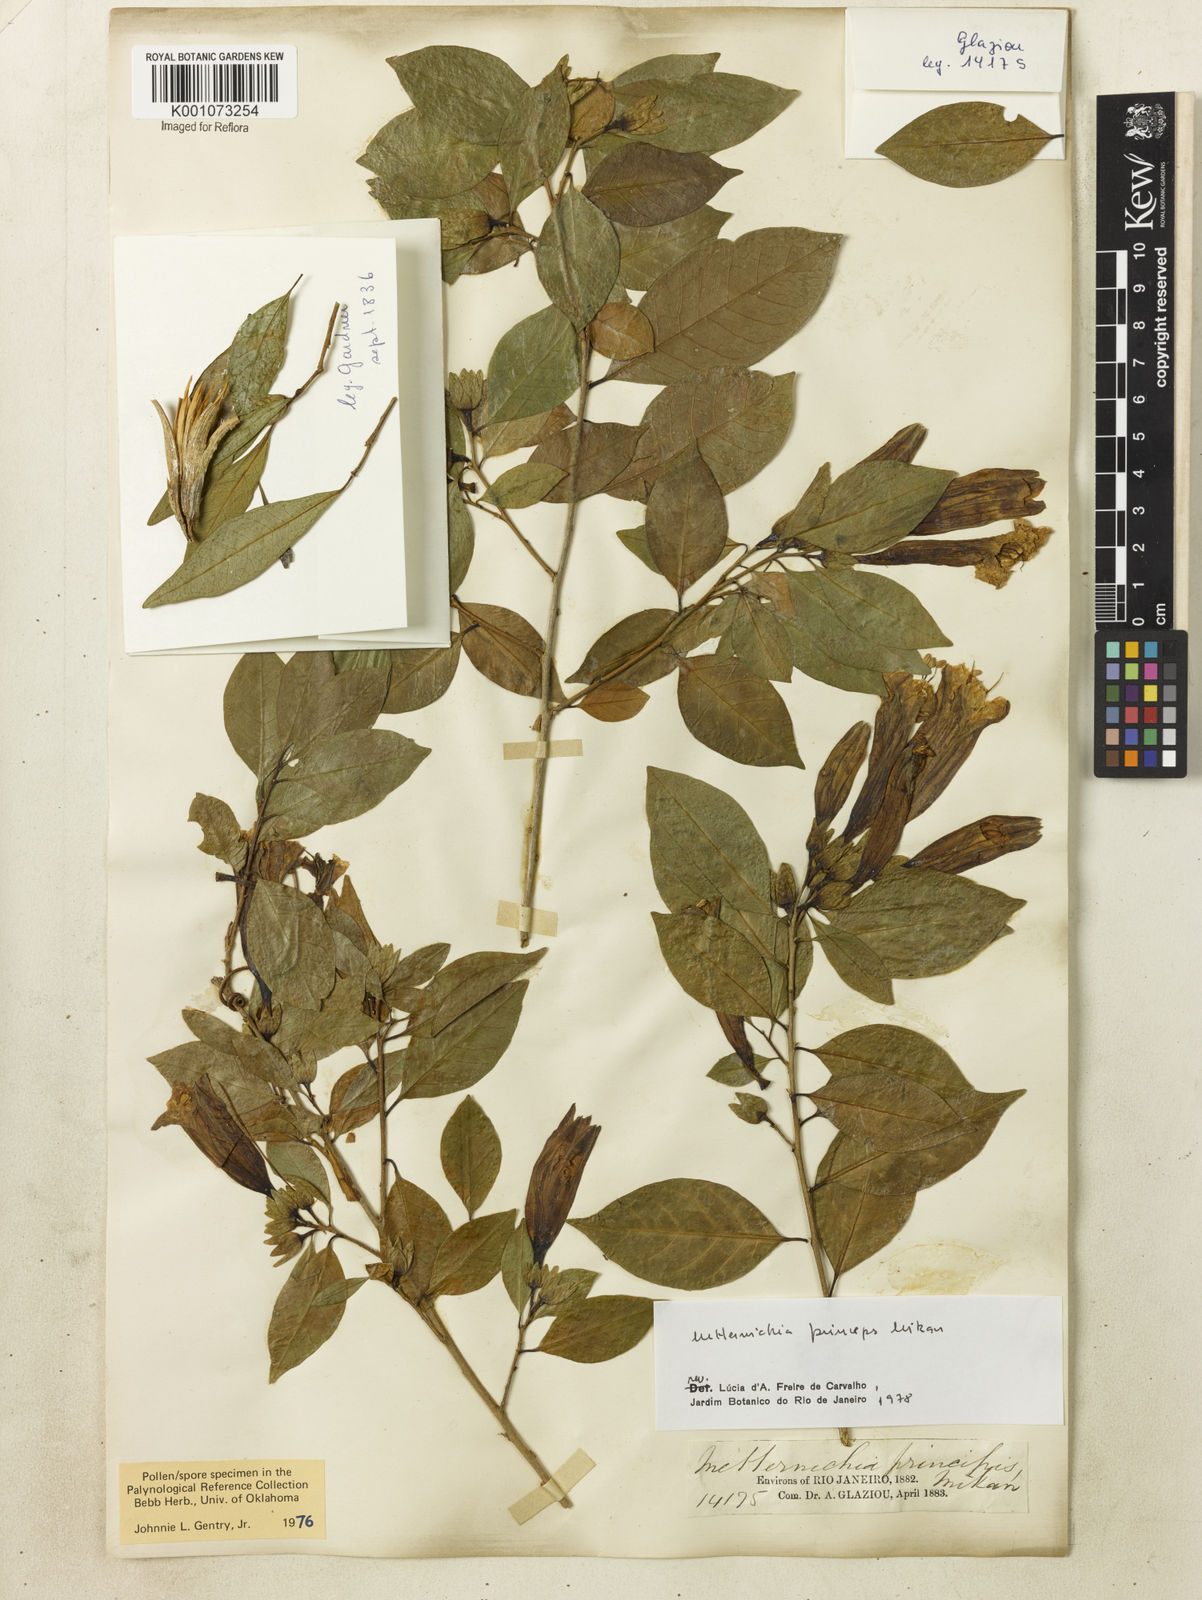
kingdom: Plantae
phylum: Tracheophyta
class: Magnoliopsida
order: Solanales
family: Solanaceae
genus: Metternichia
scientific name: Metternichia
